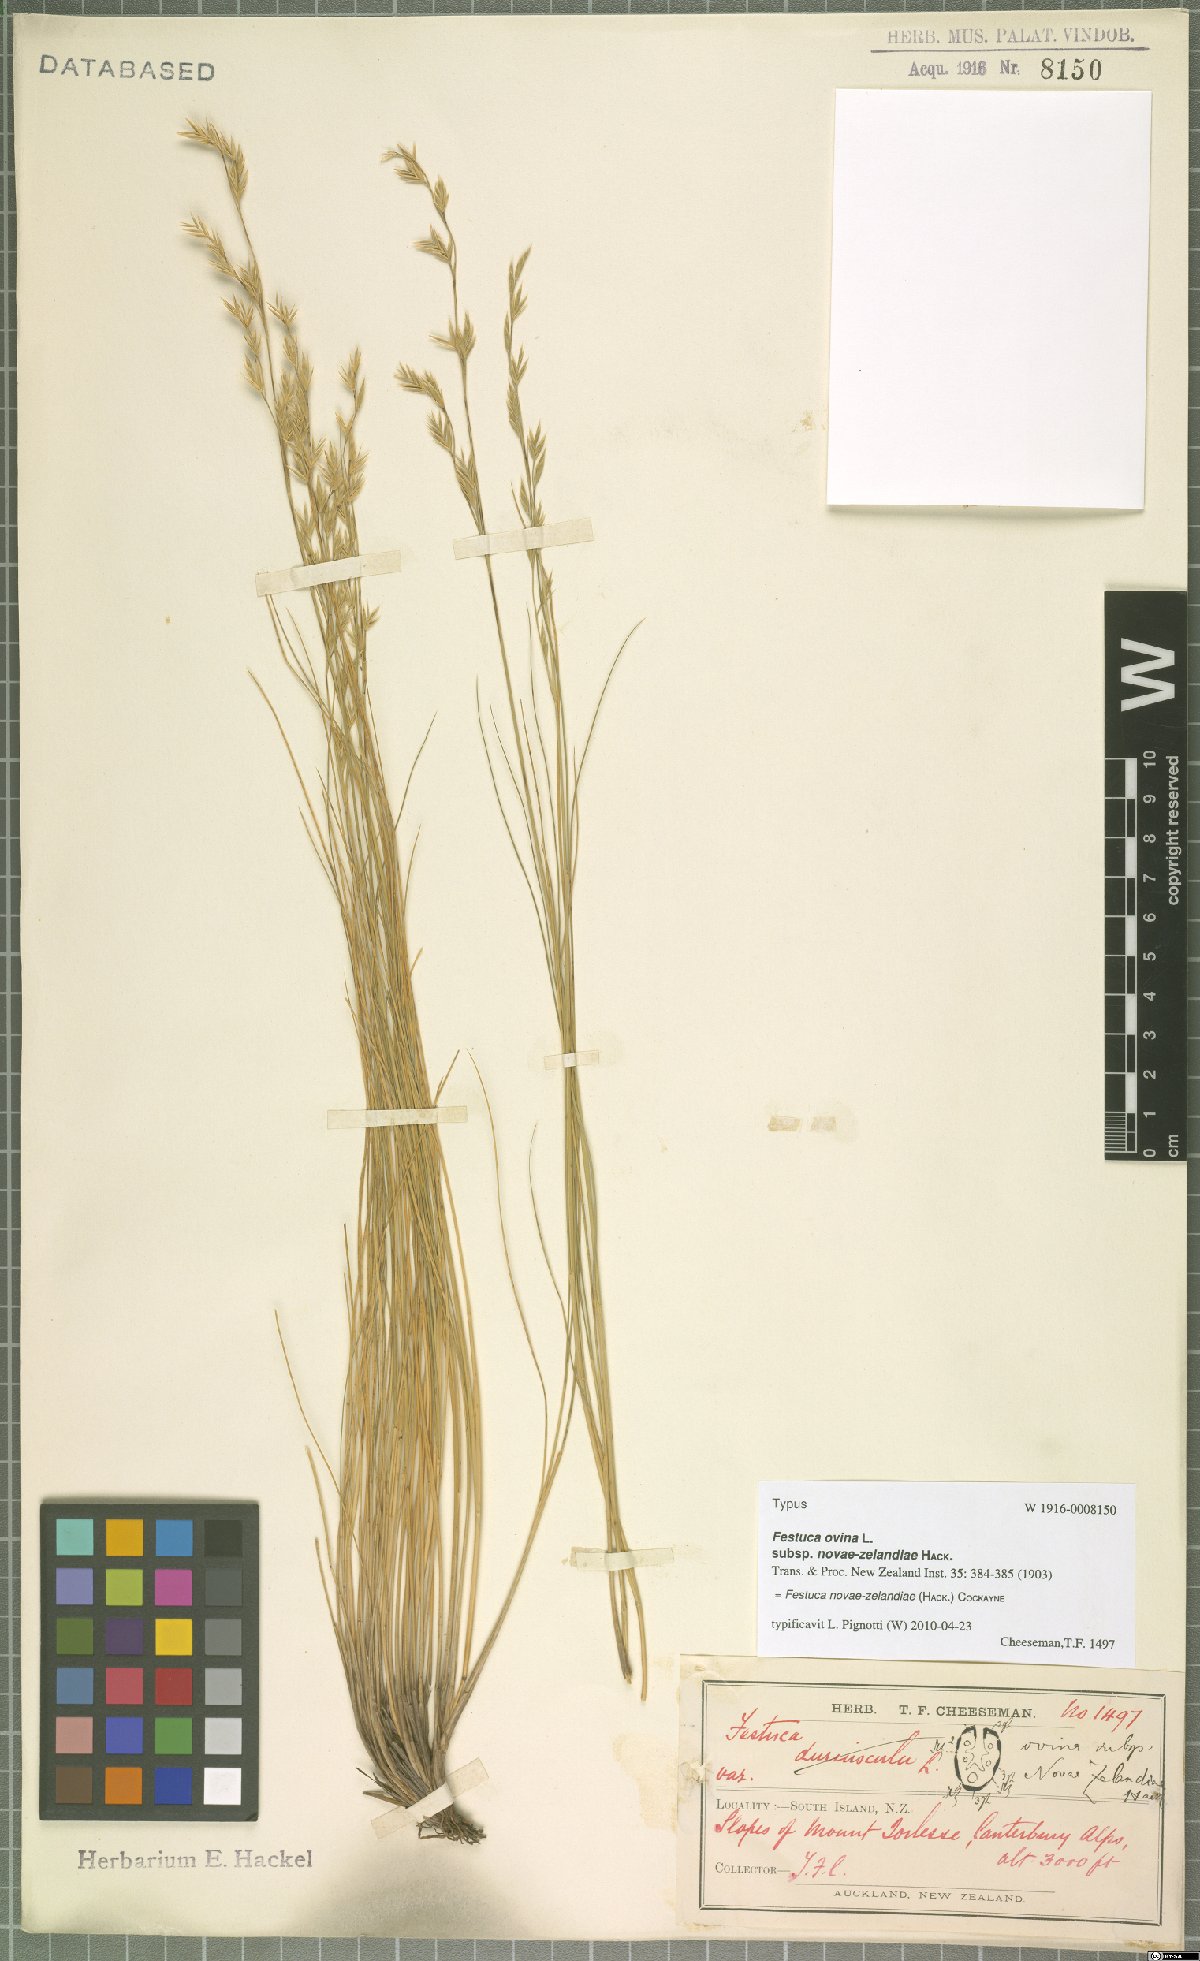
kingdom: Plantae
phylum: Tracheophyta
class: Liliopsida
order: Poales
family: Poaceae
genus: Festuca
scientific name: Festuca novae-zelandiae
